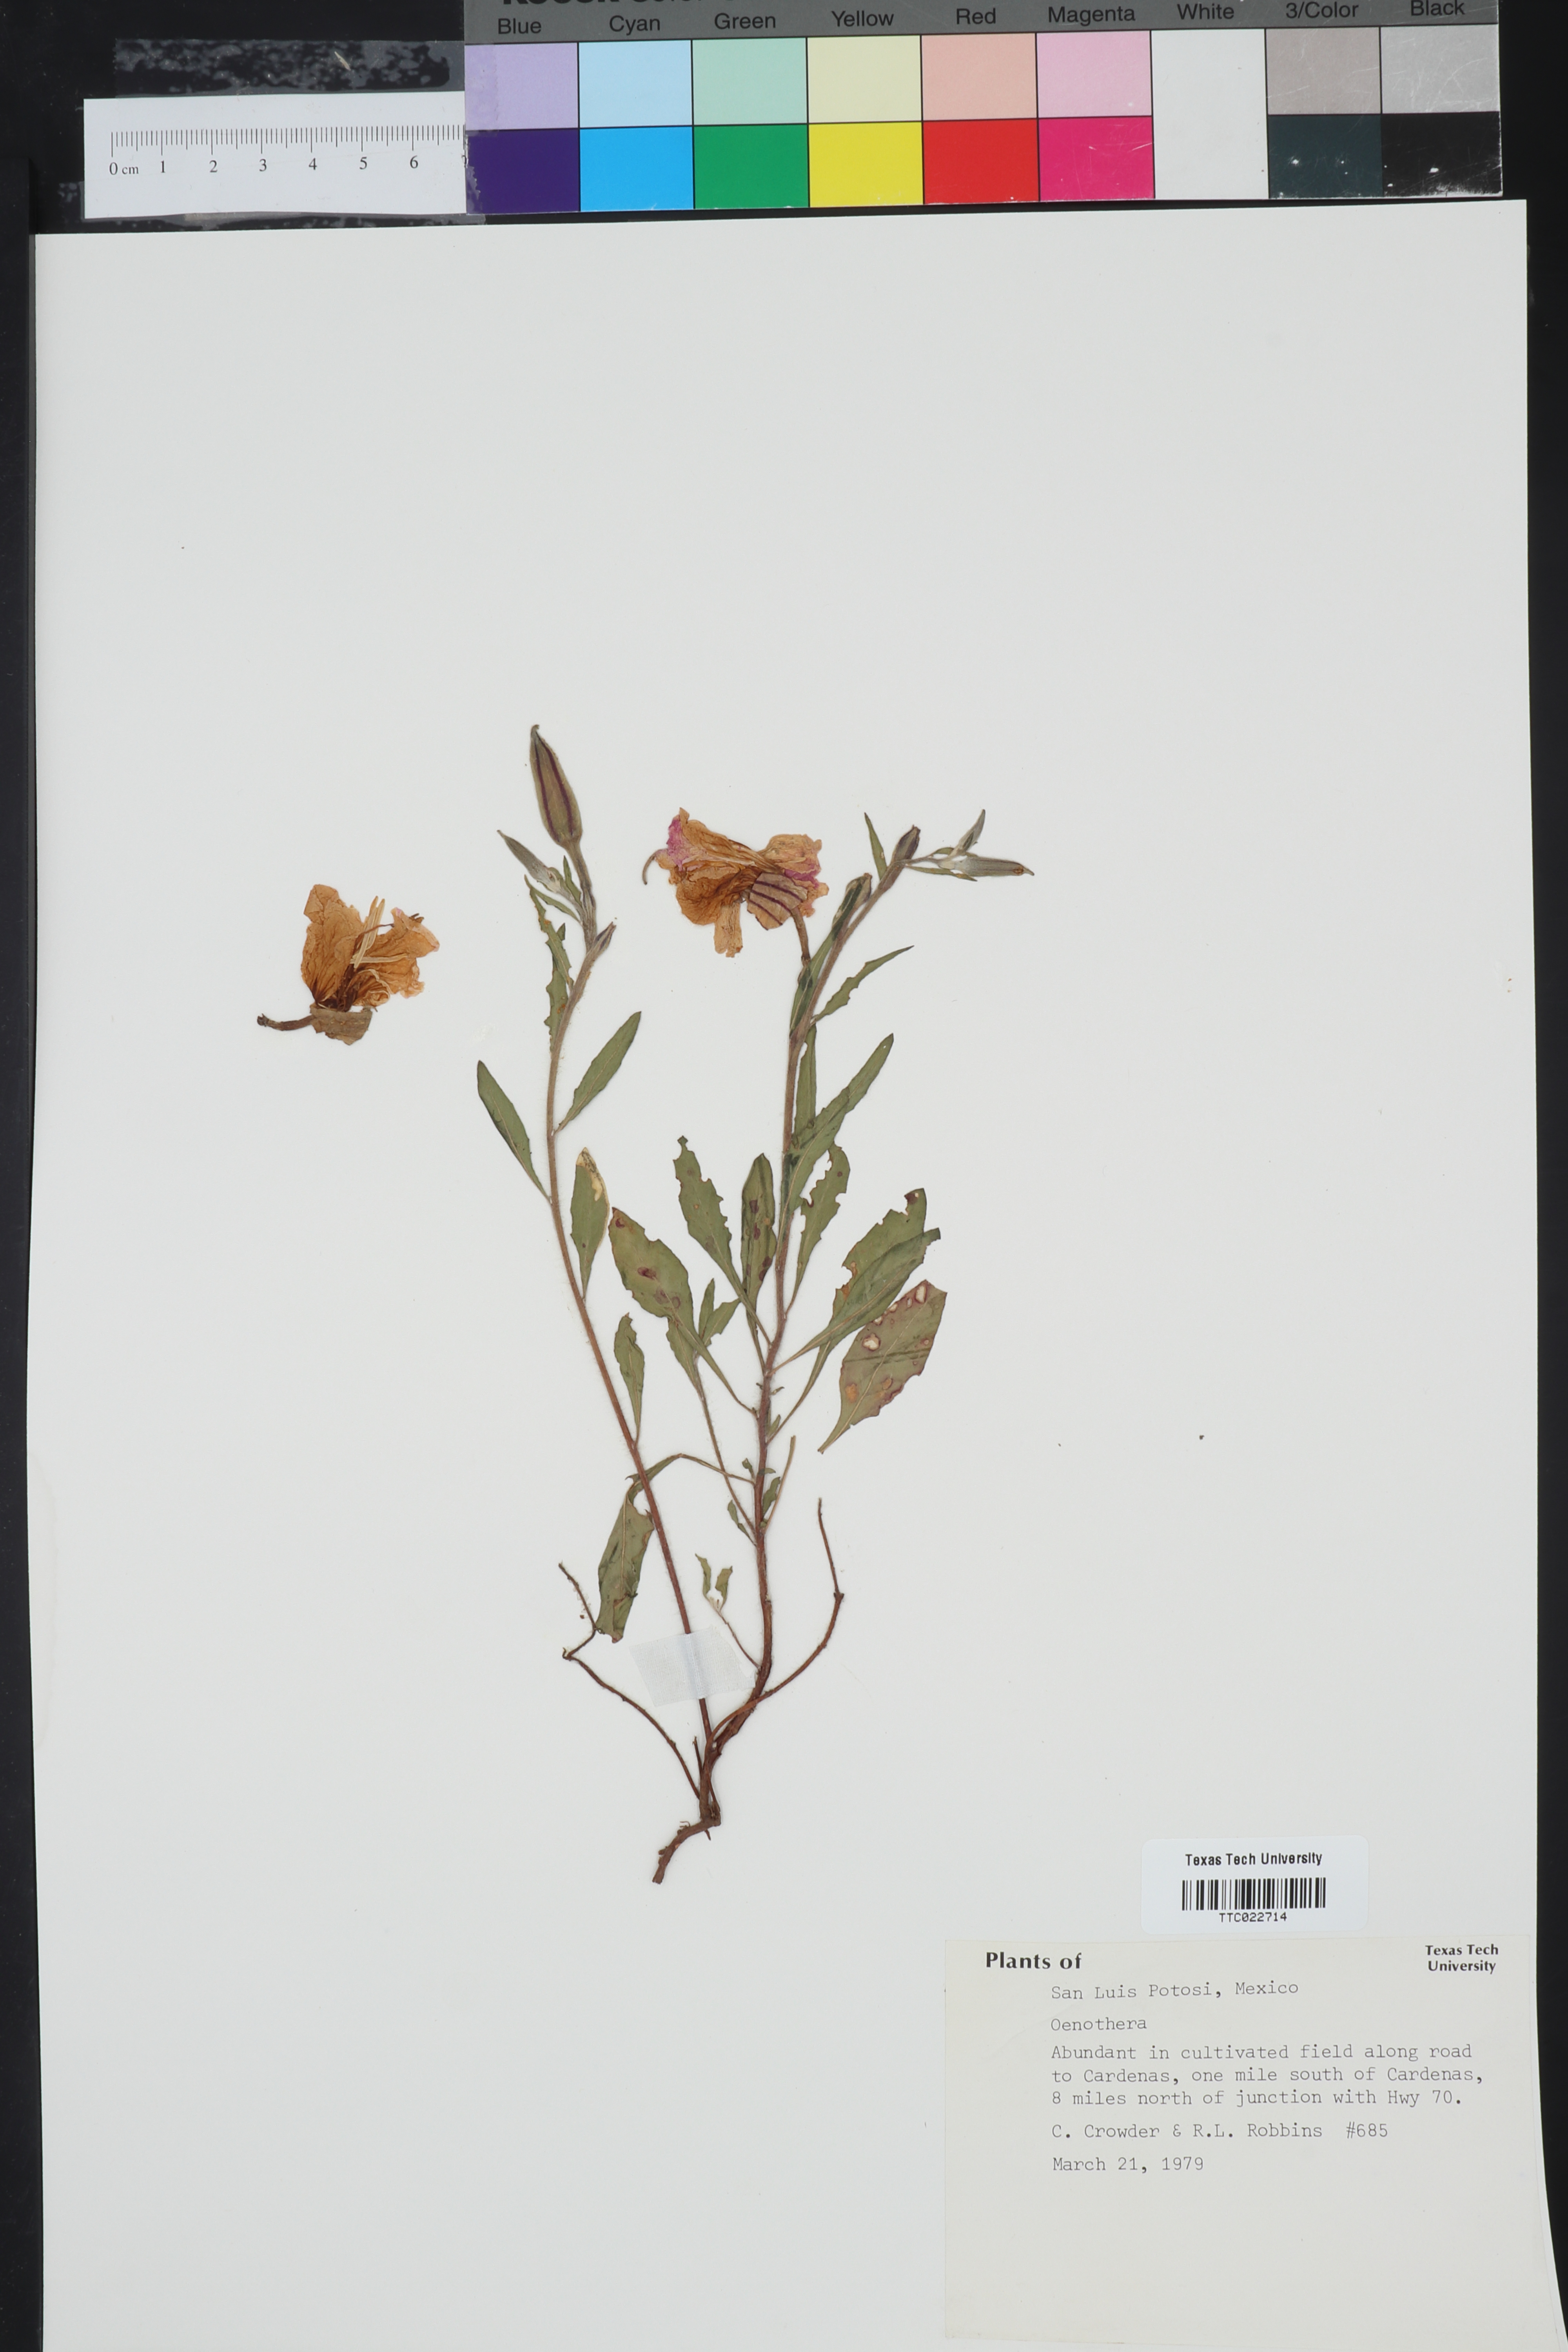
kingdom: Plantae
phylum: Tracheophyta
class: Magnoliopsida
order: Myrtales
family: Onagraceae
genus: Oenothera
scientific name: Oenothera
